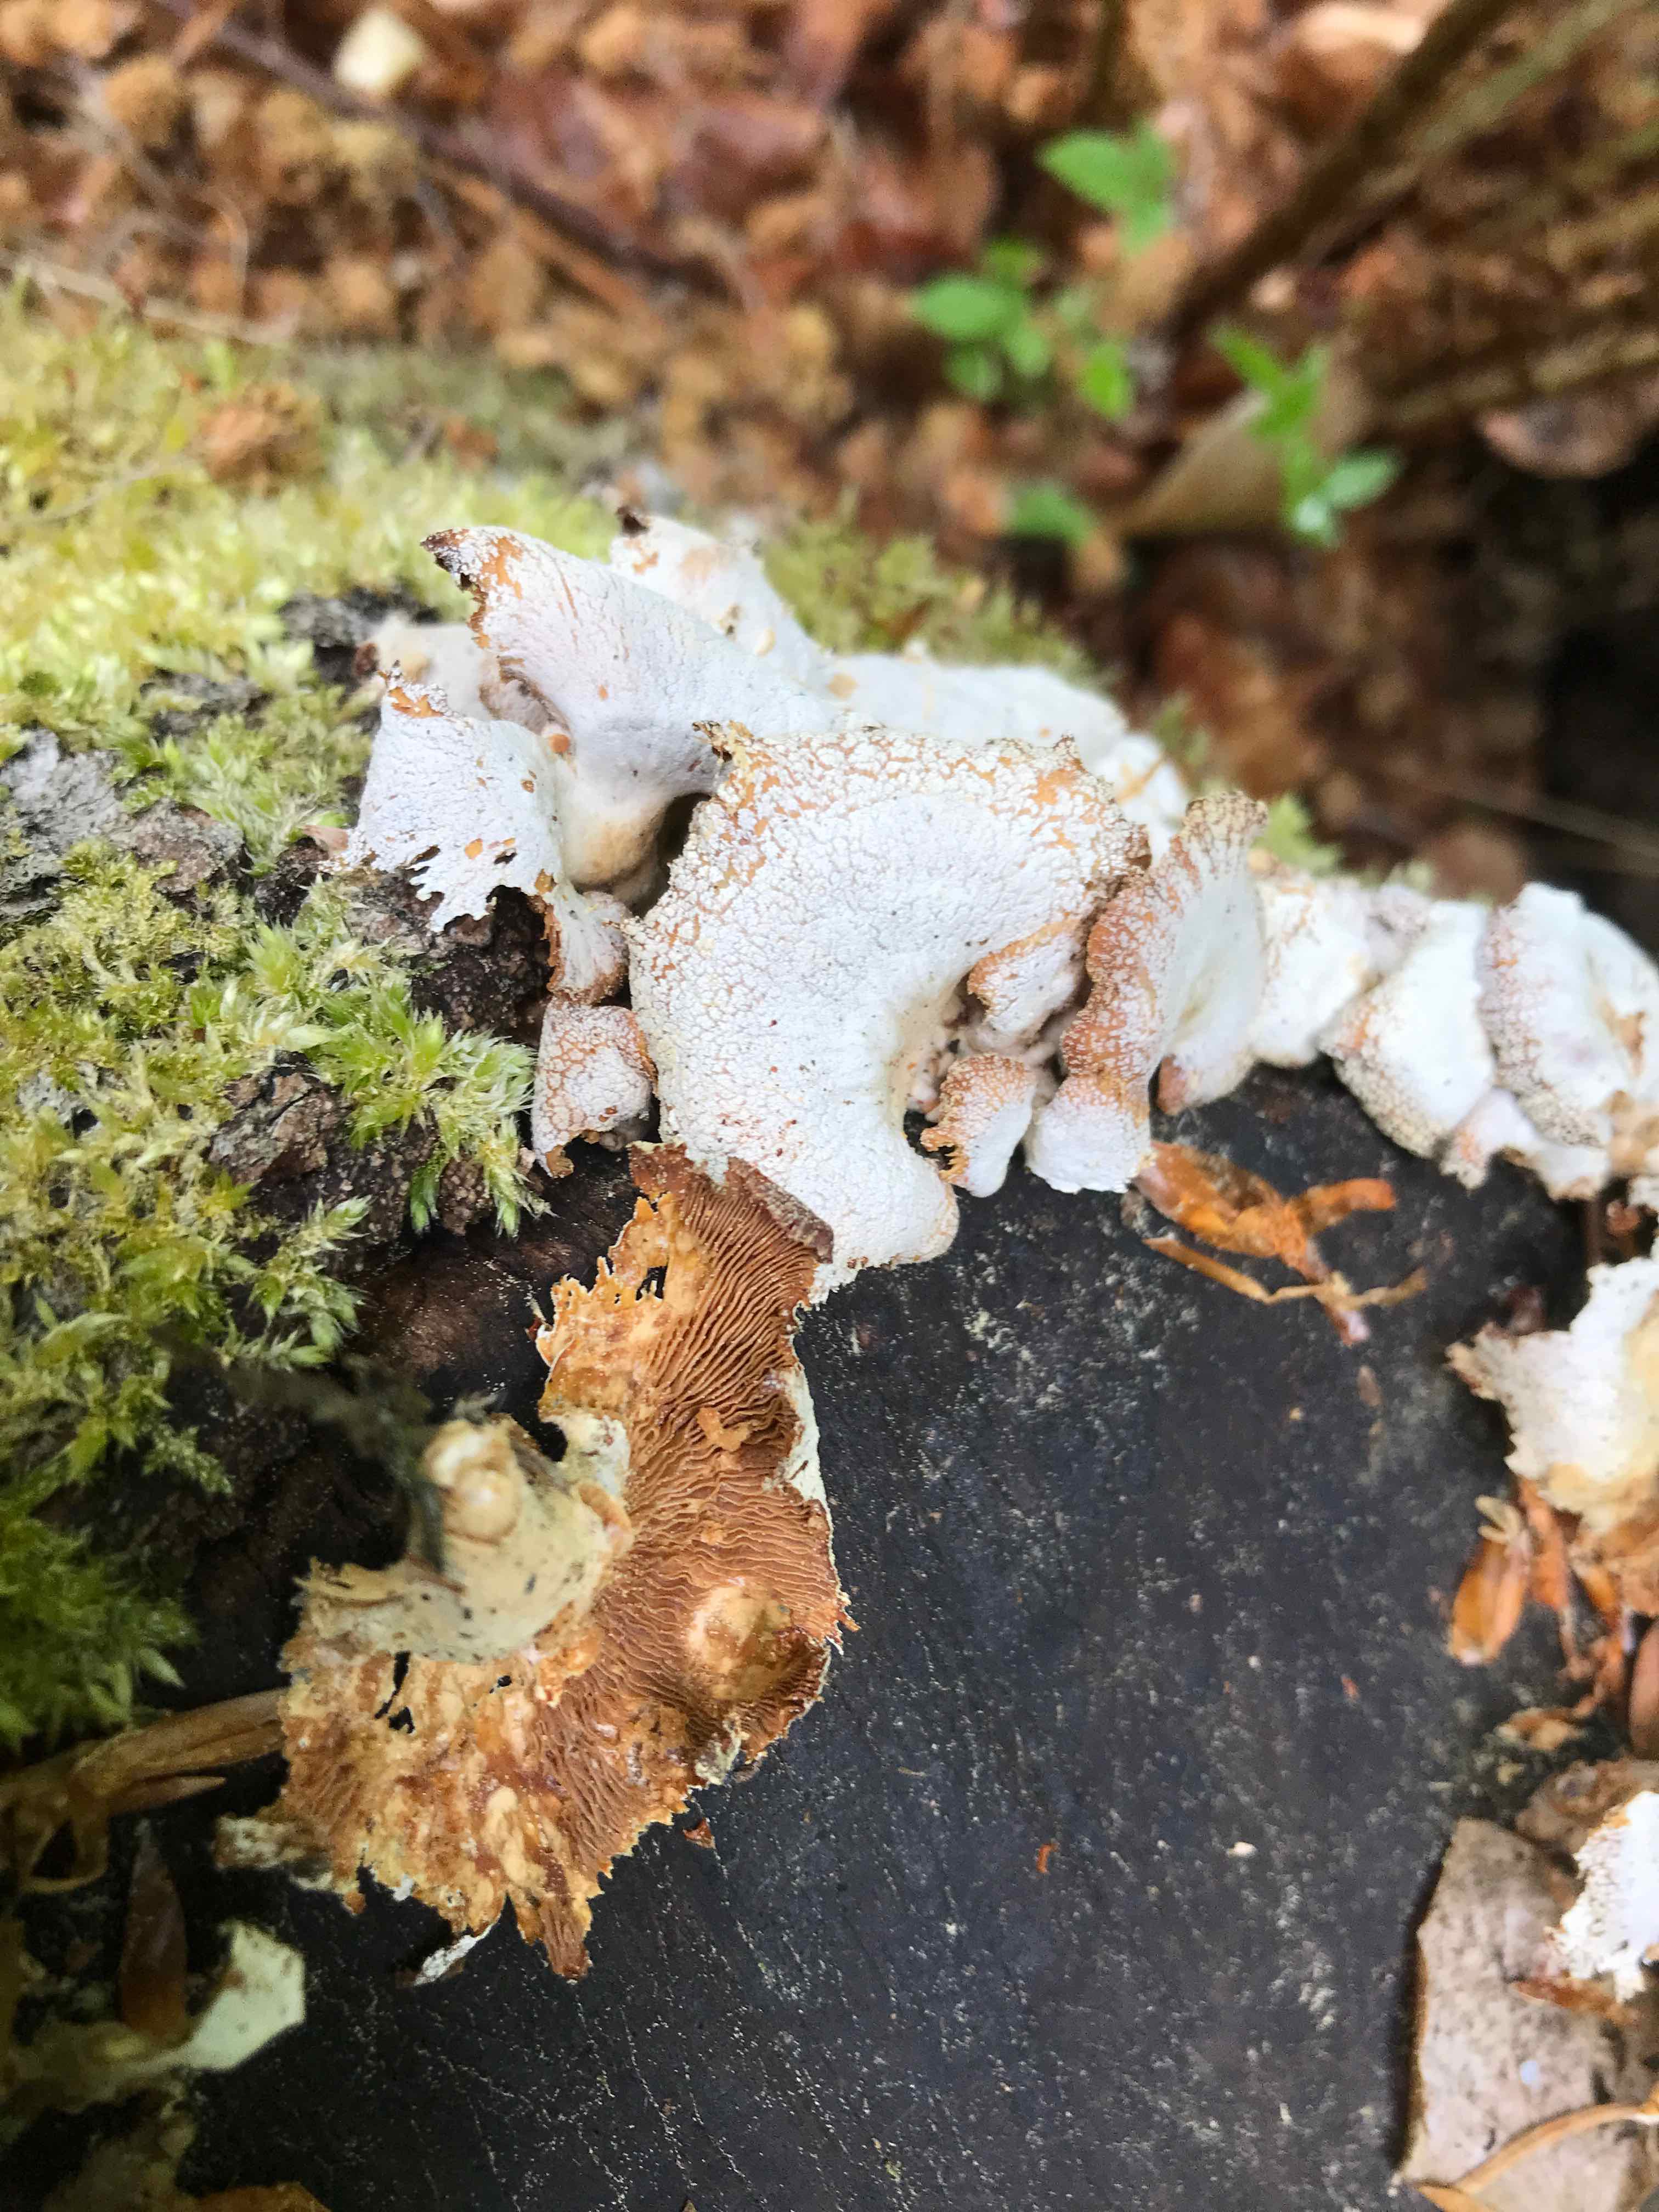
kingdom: Fungi
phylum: Basidiomycota
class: Agaricomycetes
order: Agaricales
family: Mycenaceae
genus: Panellus
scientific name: Panellus stipticus
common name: kliddet epaulethat
